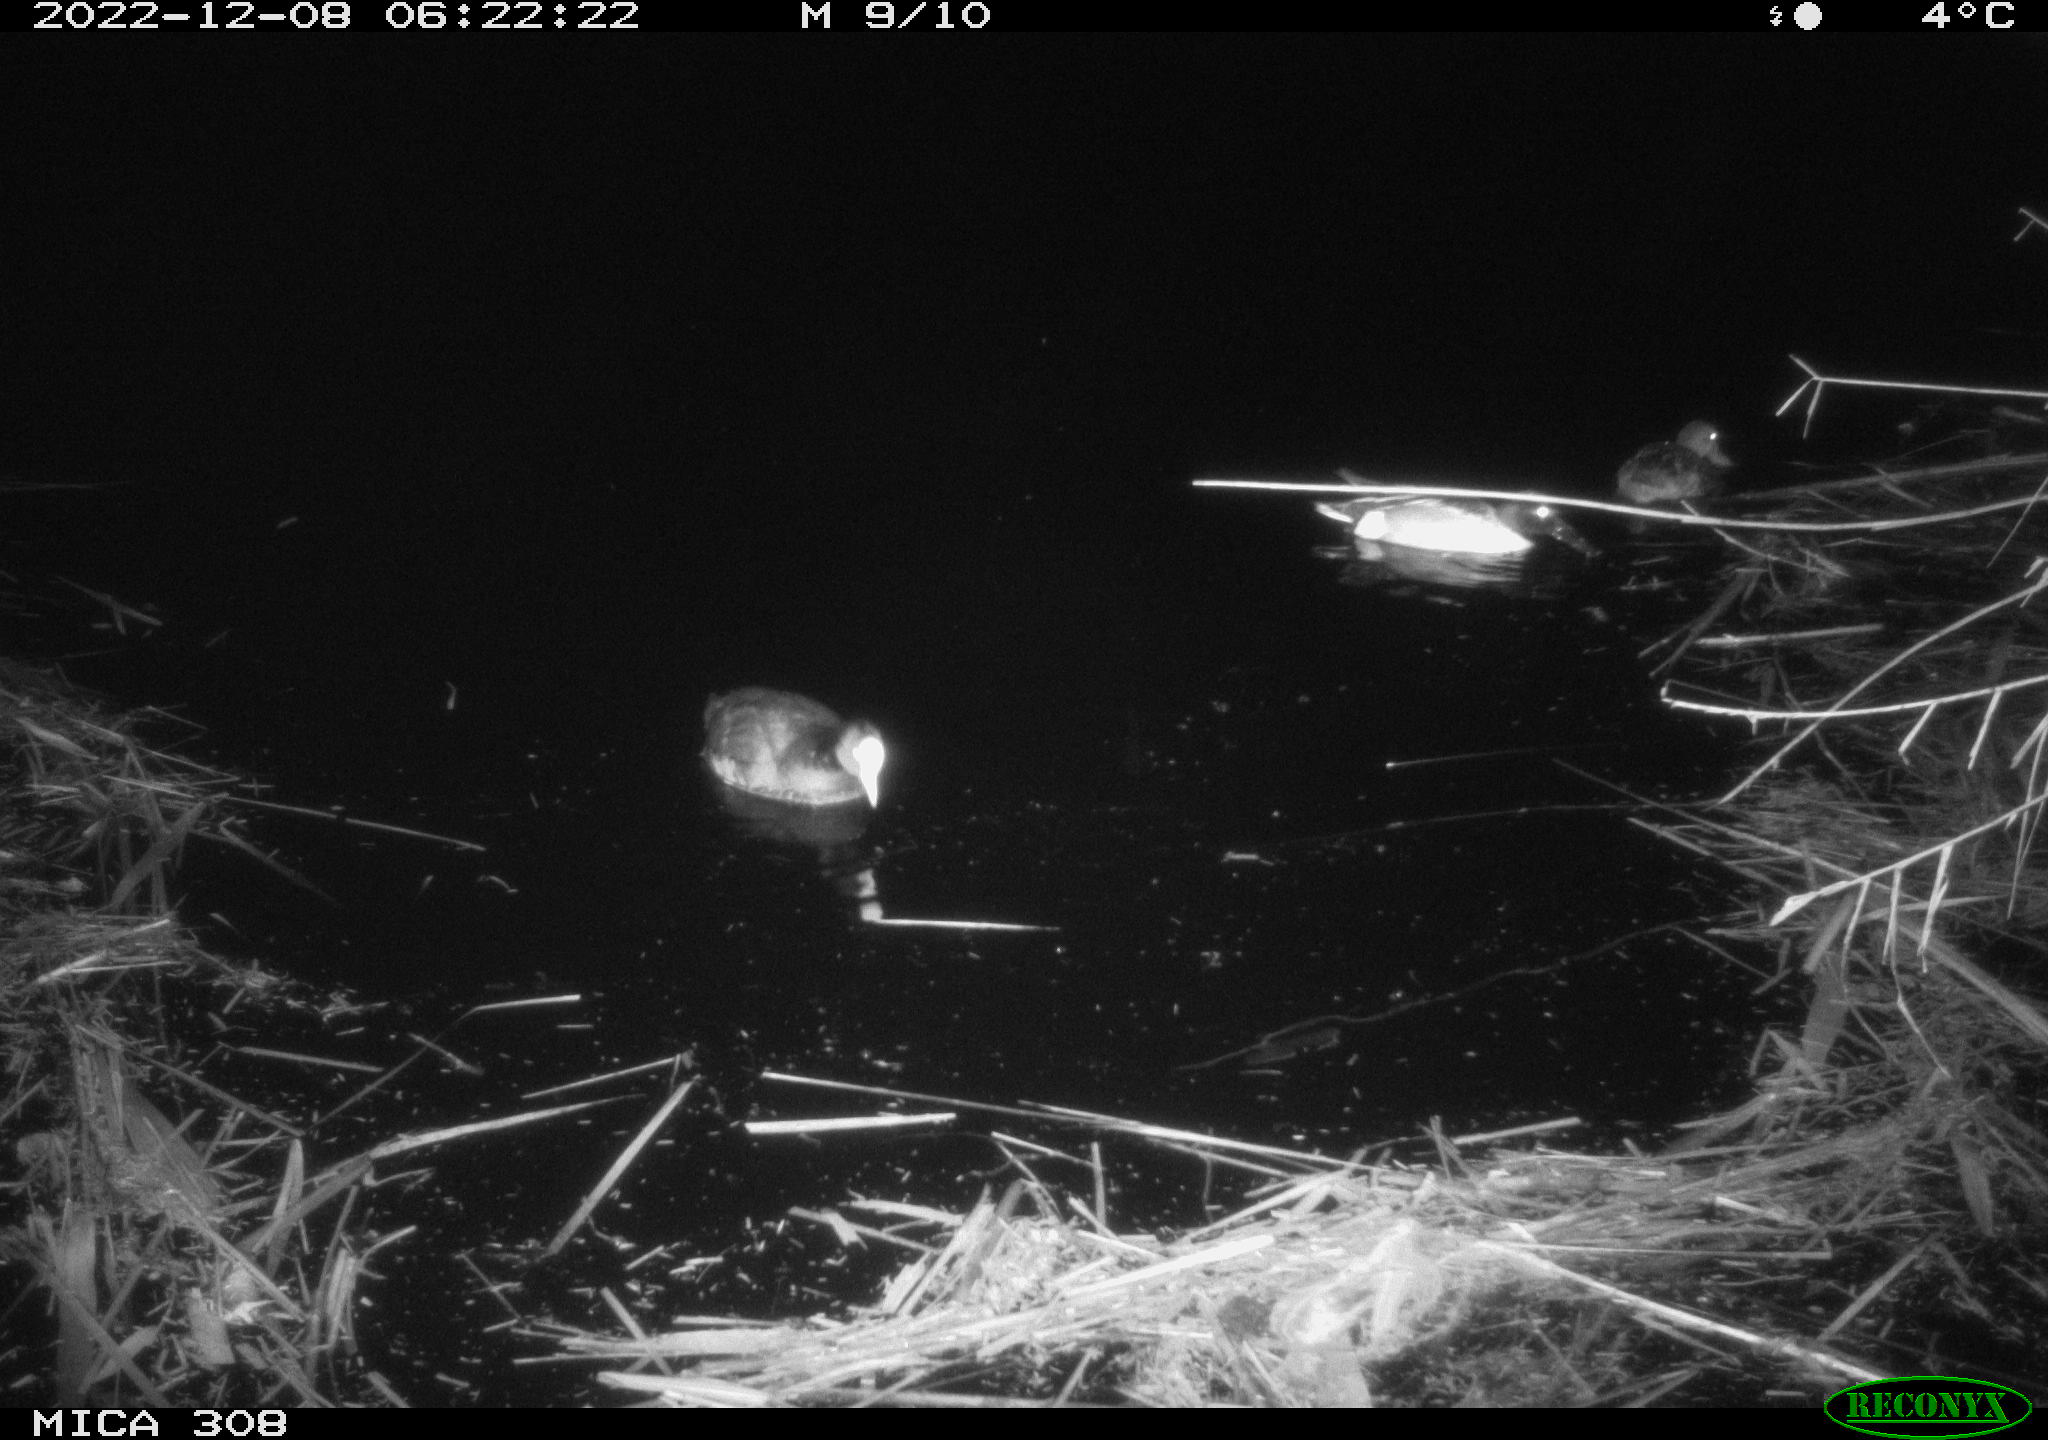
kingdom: Animalia
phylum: Chordata
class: Aves
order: Anseriformes
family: Anatidae
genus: Anas
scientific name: Anas
